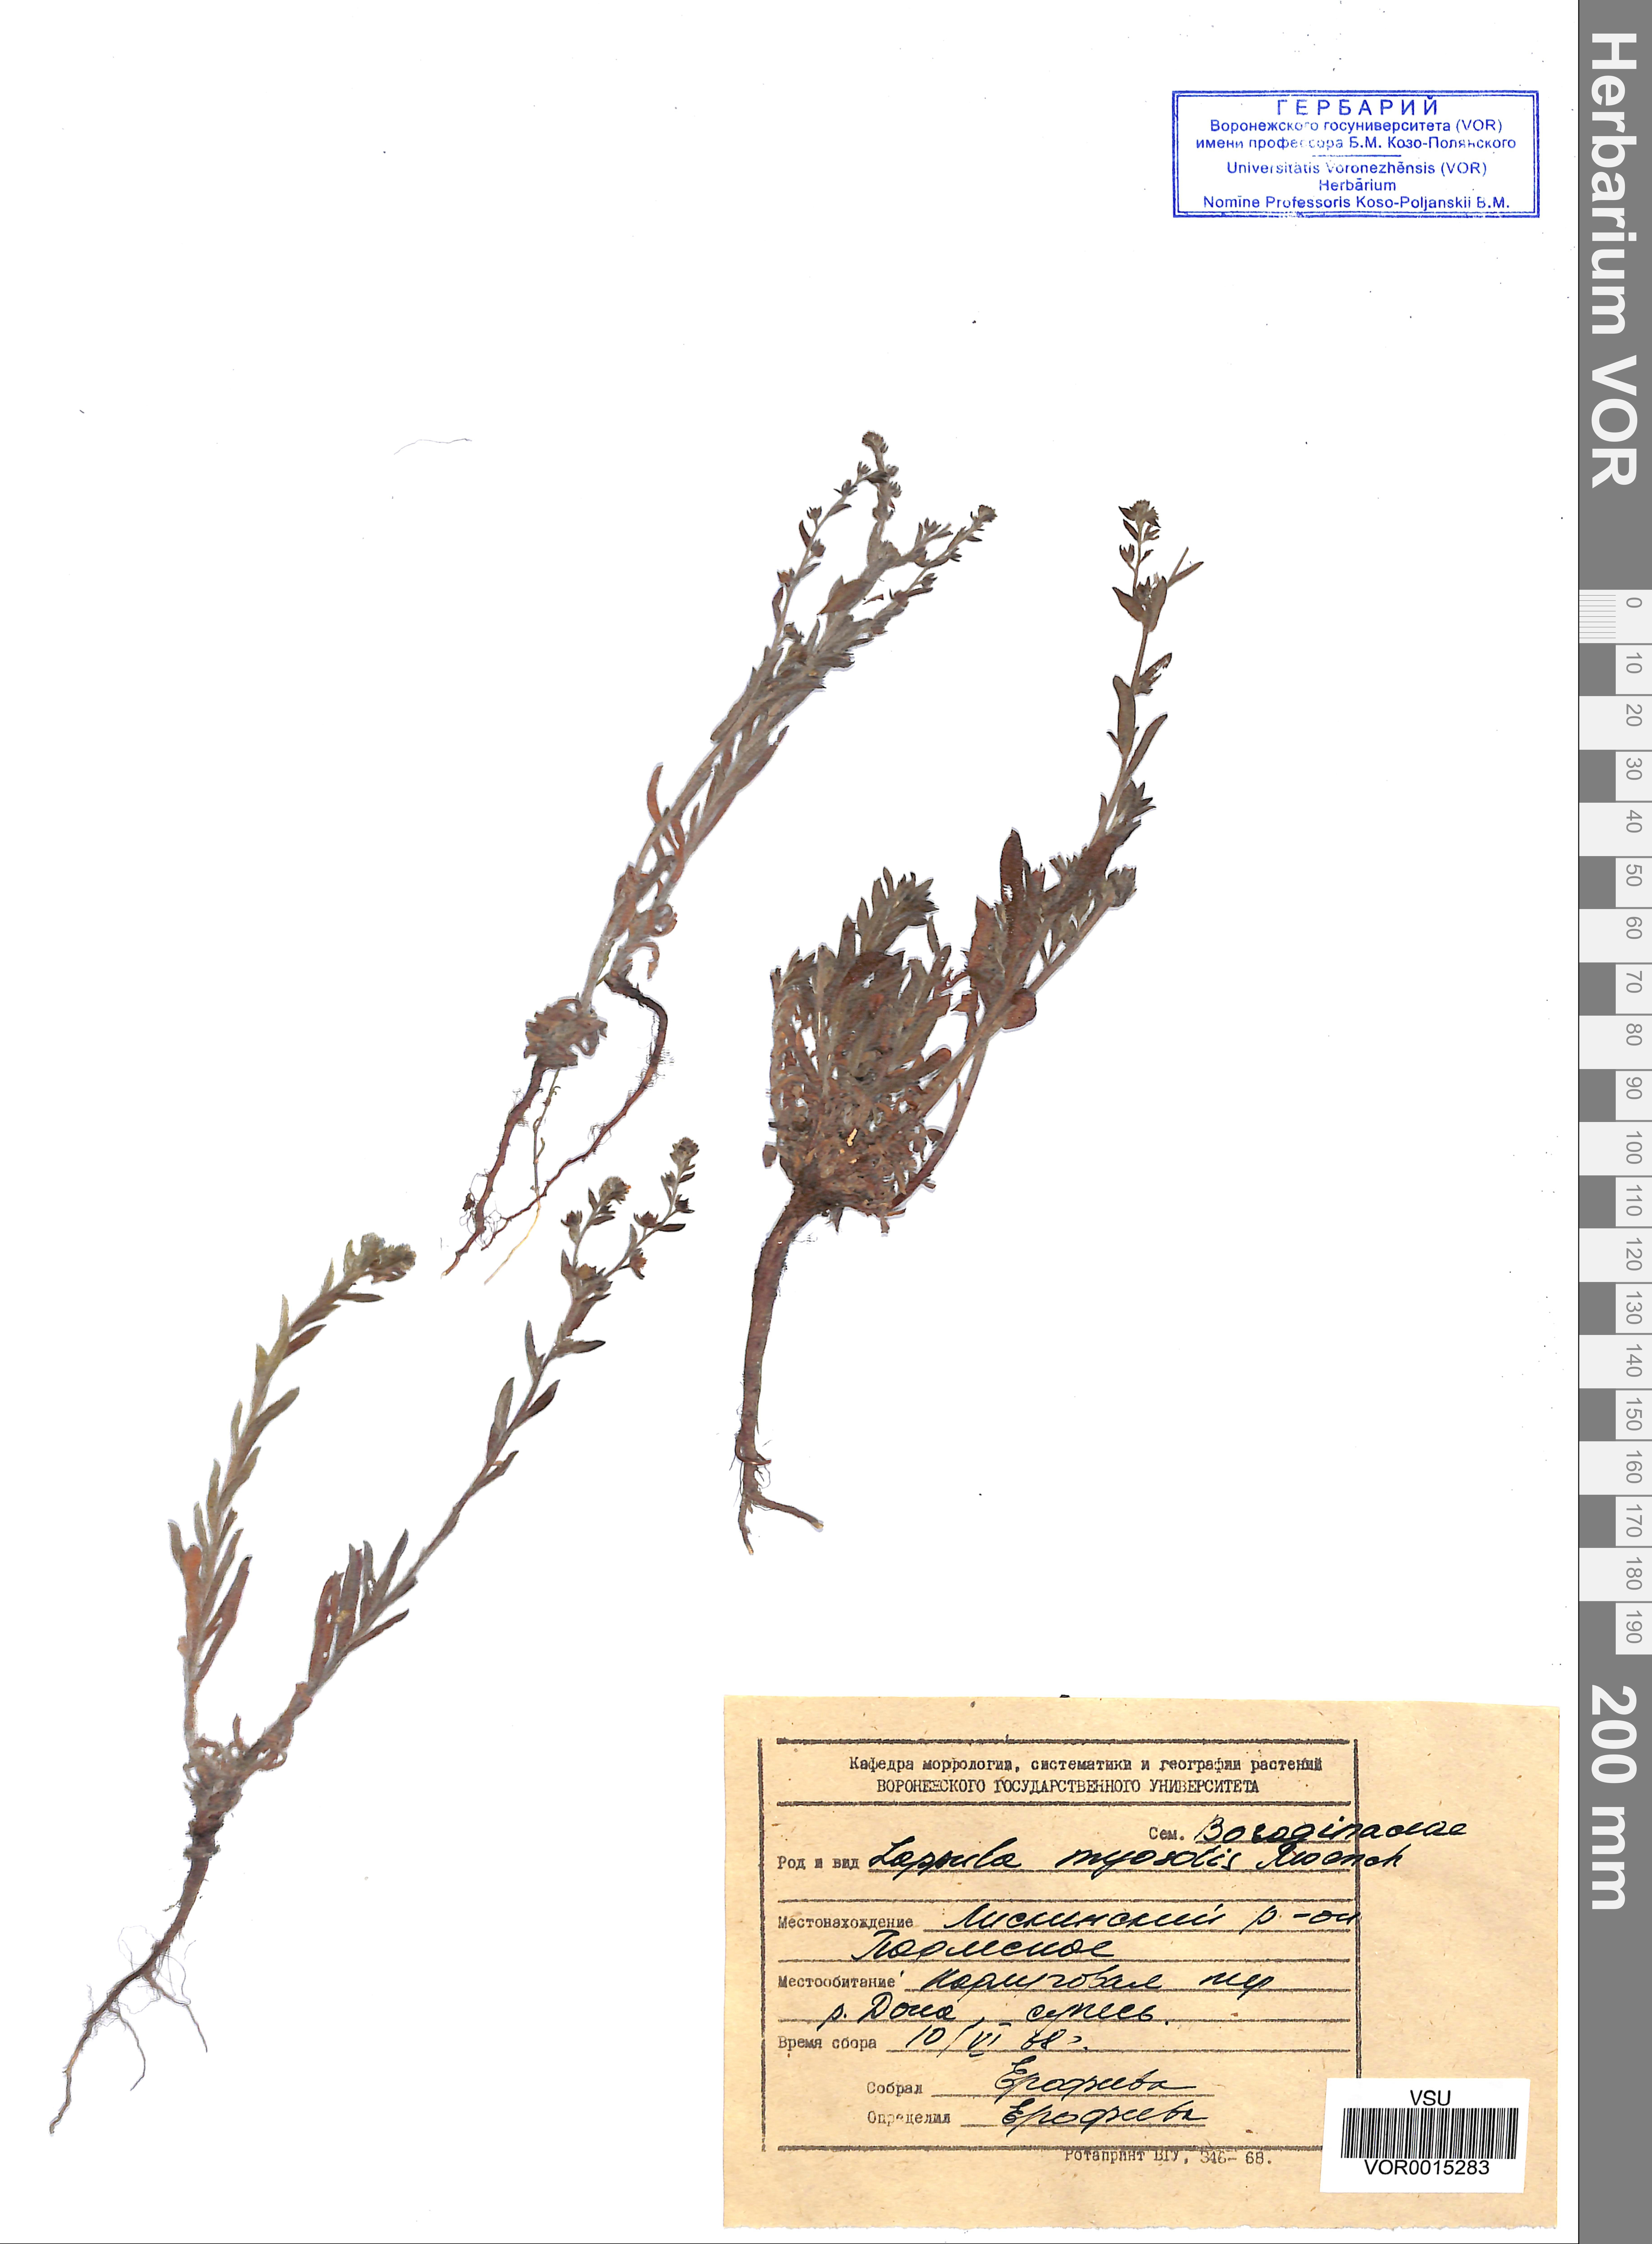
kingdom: Plantae
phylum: Tracheophyta
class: Magnoliopsida
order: Boraginales
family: Boraginaceae
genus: Lappula
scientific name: Lappula squarrosa
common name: European stickseed
